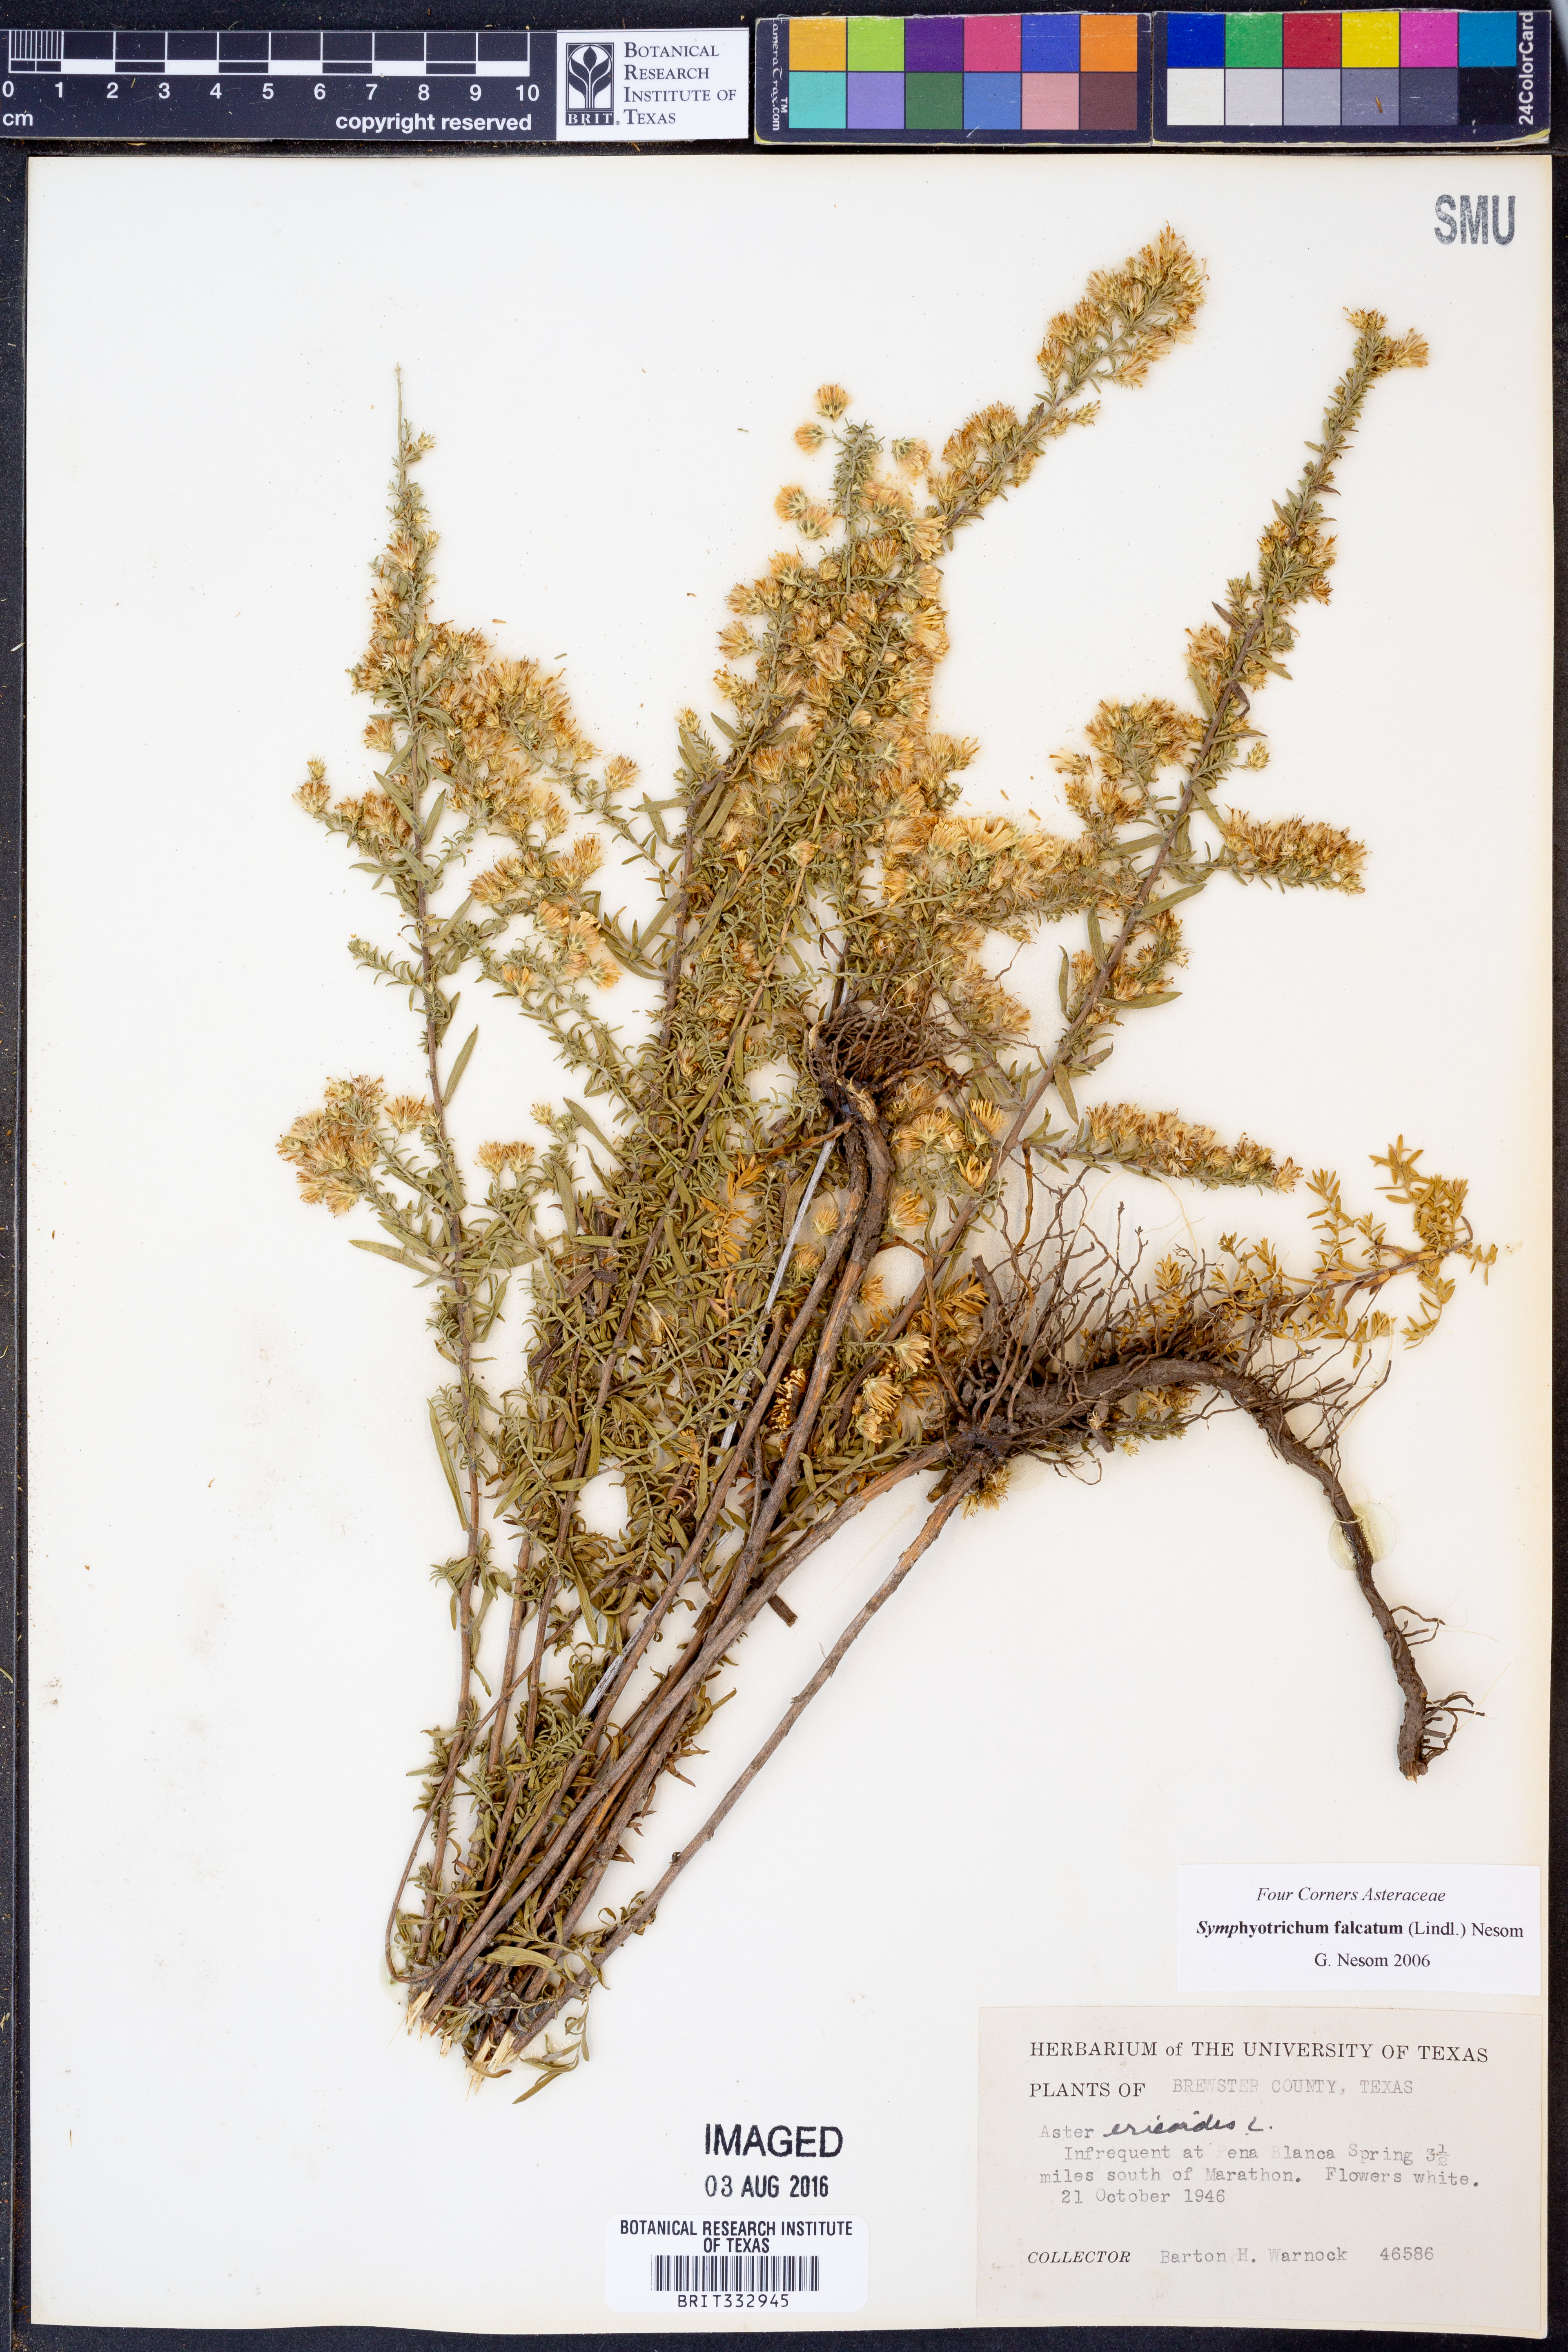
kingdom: Plantae
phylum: Tracheophyta
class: Magnoliopsida
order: Asterales
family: Asteraceae
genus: Symphyotrichum
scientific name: Symphyotrichum falcatum
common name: Creeping white prairie aster
